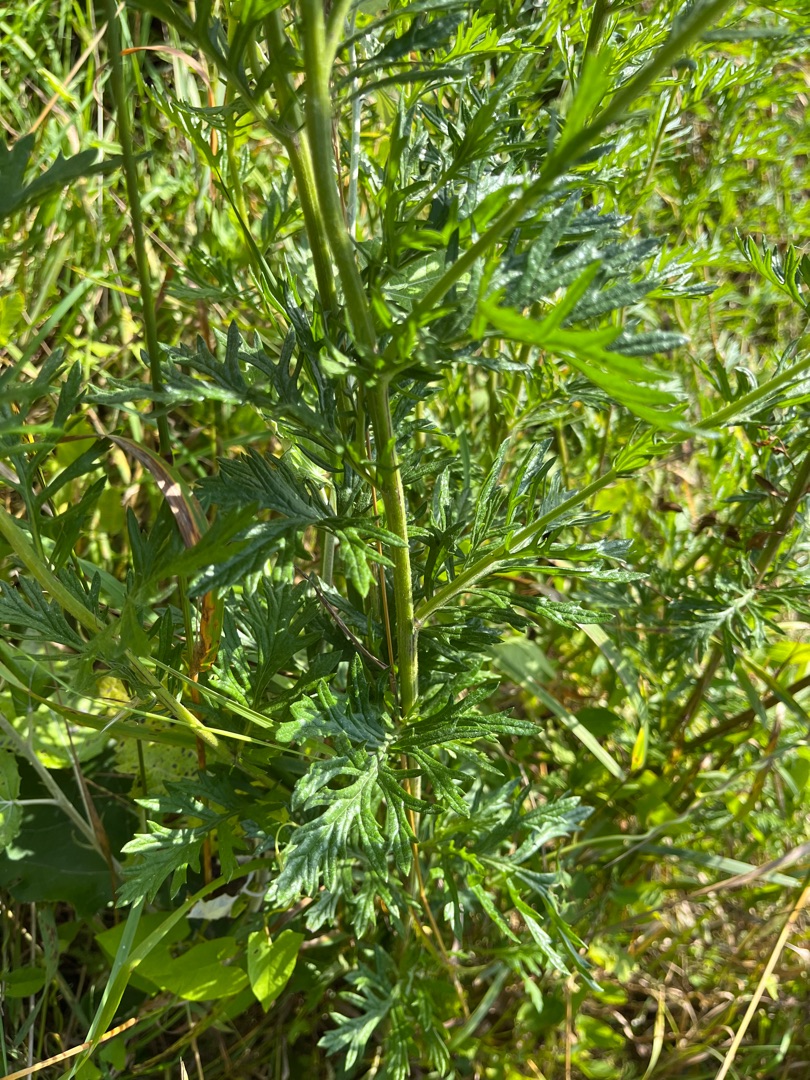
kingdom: Plantae
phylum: Tracheophyta
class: Magnoliopsida
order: Asterales
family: Asteraceae
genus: Jacobaea
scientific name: Jacobaea erucifolia
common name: Smalfliget brandbæger
